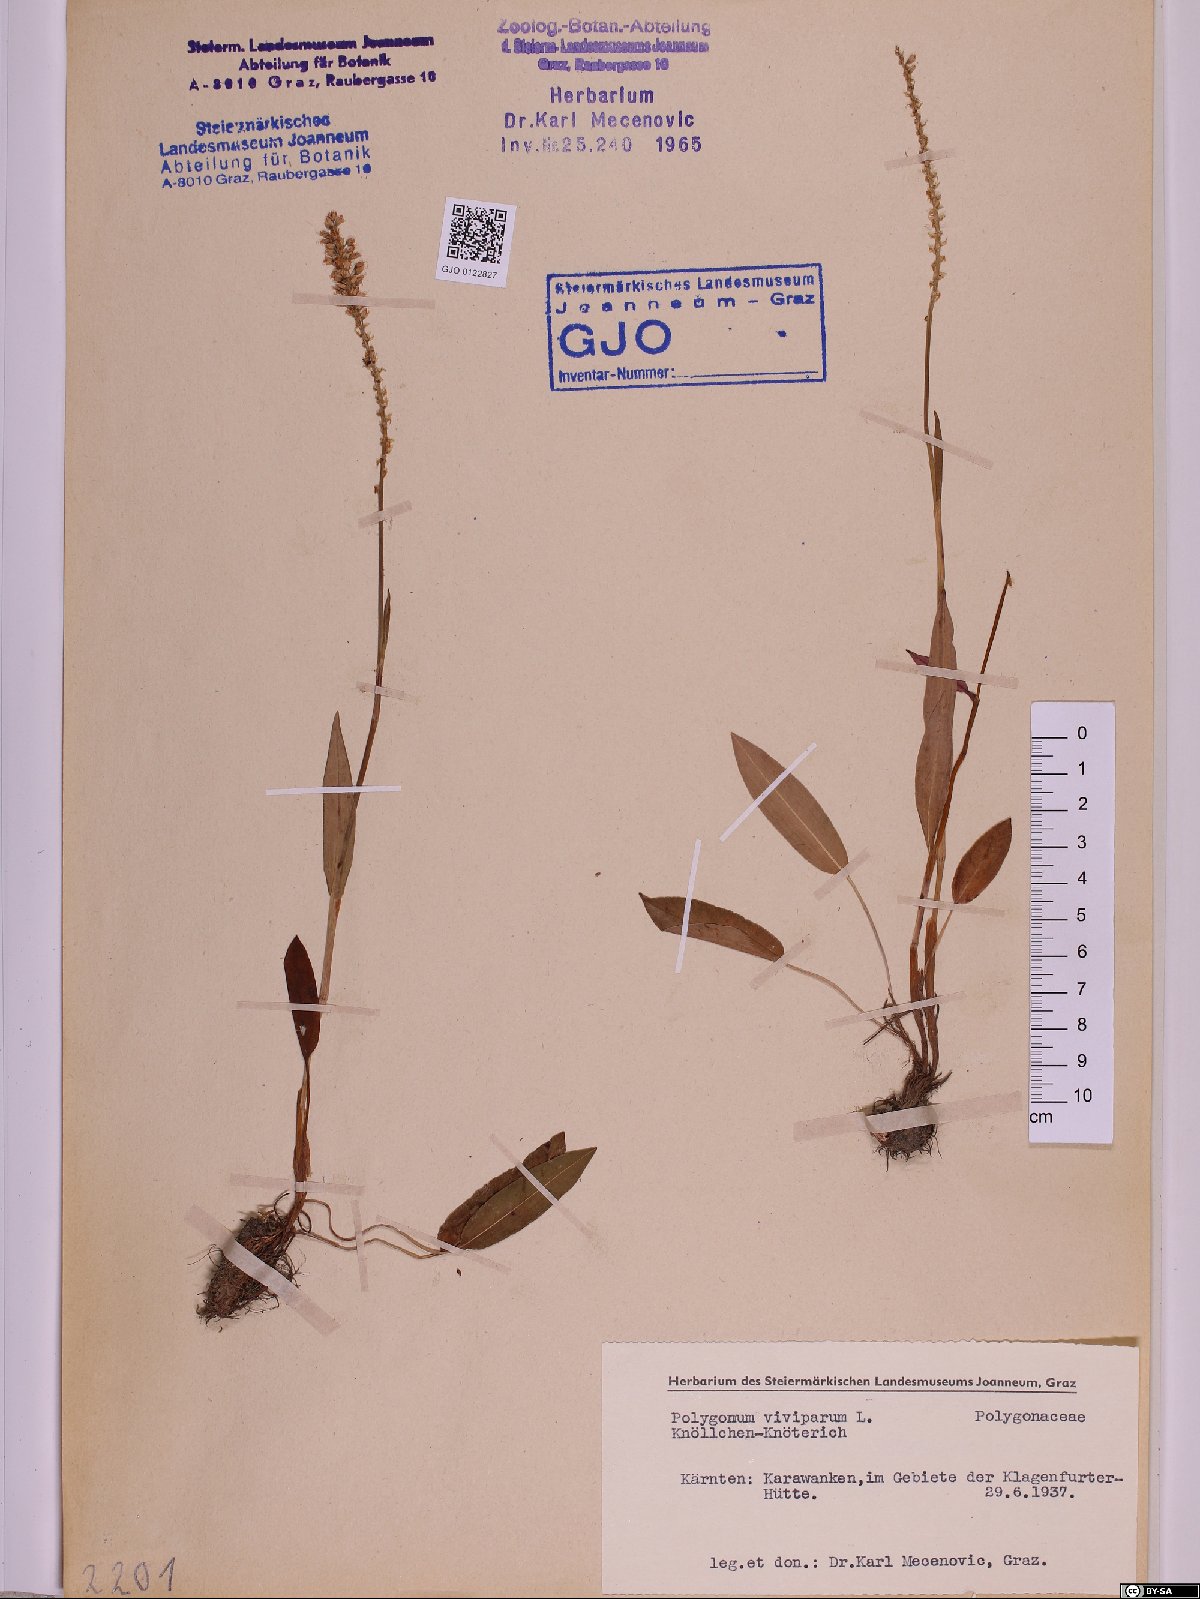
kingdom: Plantae
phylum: Tracheophyta
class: Magnoliopsida
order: Caryophyllales
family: Polygonaceae
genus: Bistorta
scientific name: Bistorta vivipara
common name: Alpine bistort
